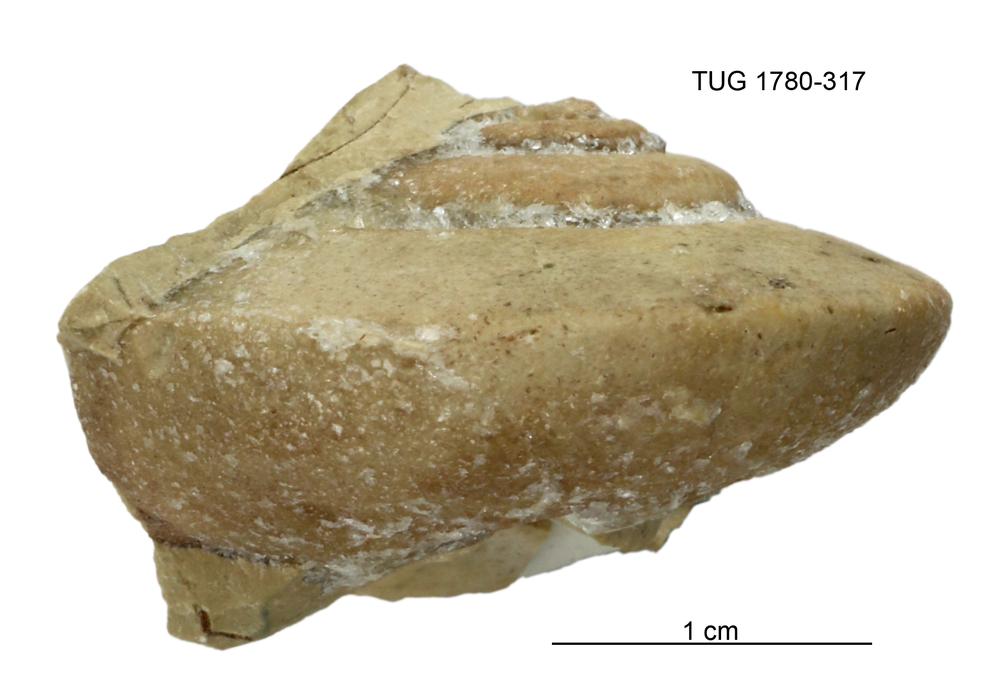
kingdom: Animalia
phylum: Mollusca
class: Gastropoda
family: Lesueurillidae
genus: Pararaphistoma
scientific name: Pararaphistoma Raphistoma suturale
